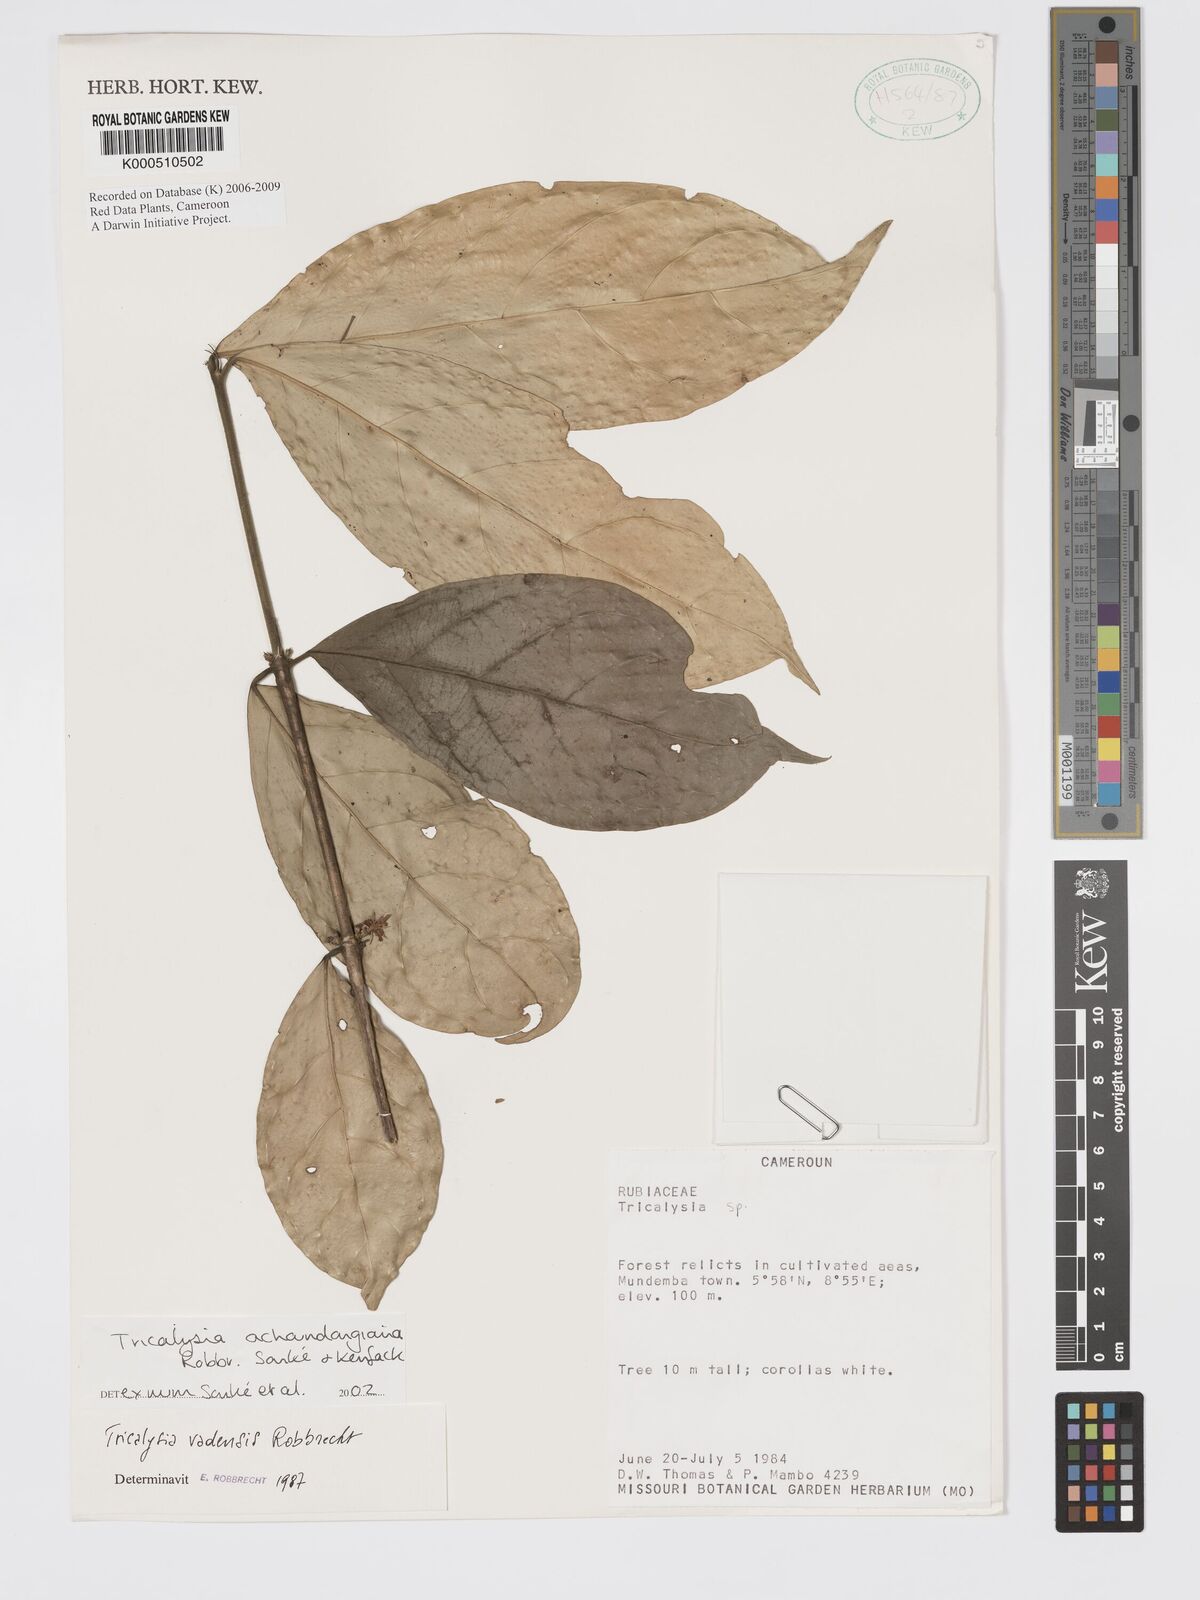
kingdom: Plantae
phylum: Tracheophyta
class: Magnoliopsida
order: Gentianales
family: Rubiaceae
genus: Tricalysia
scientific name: Tricalysia achoundongiana
